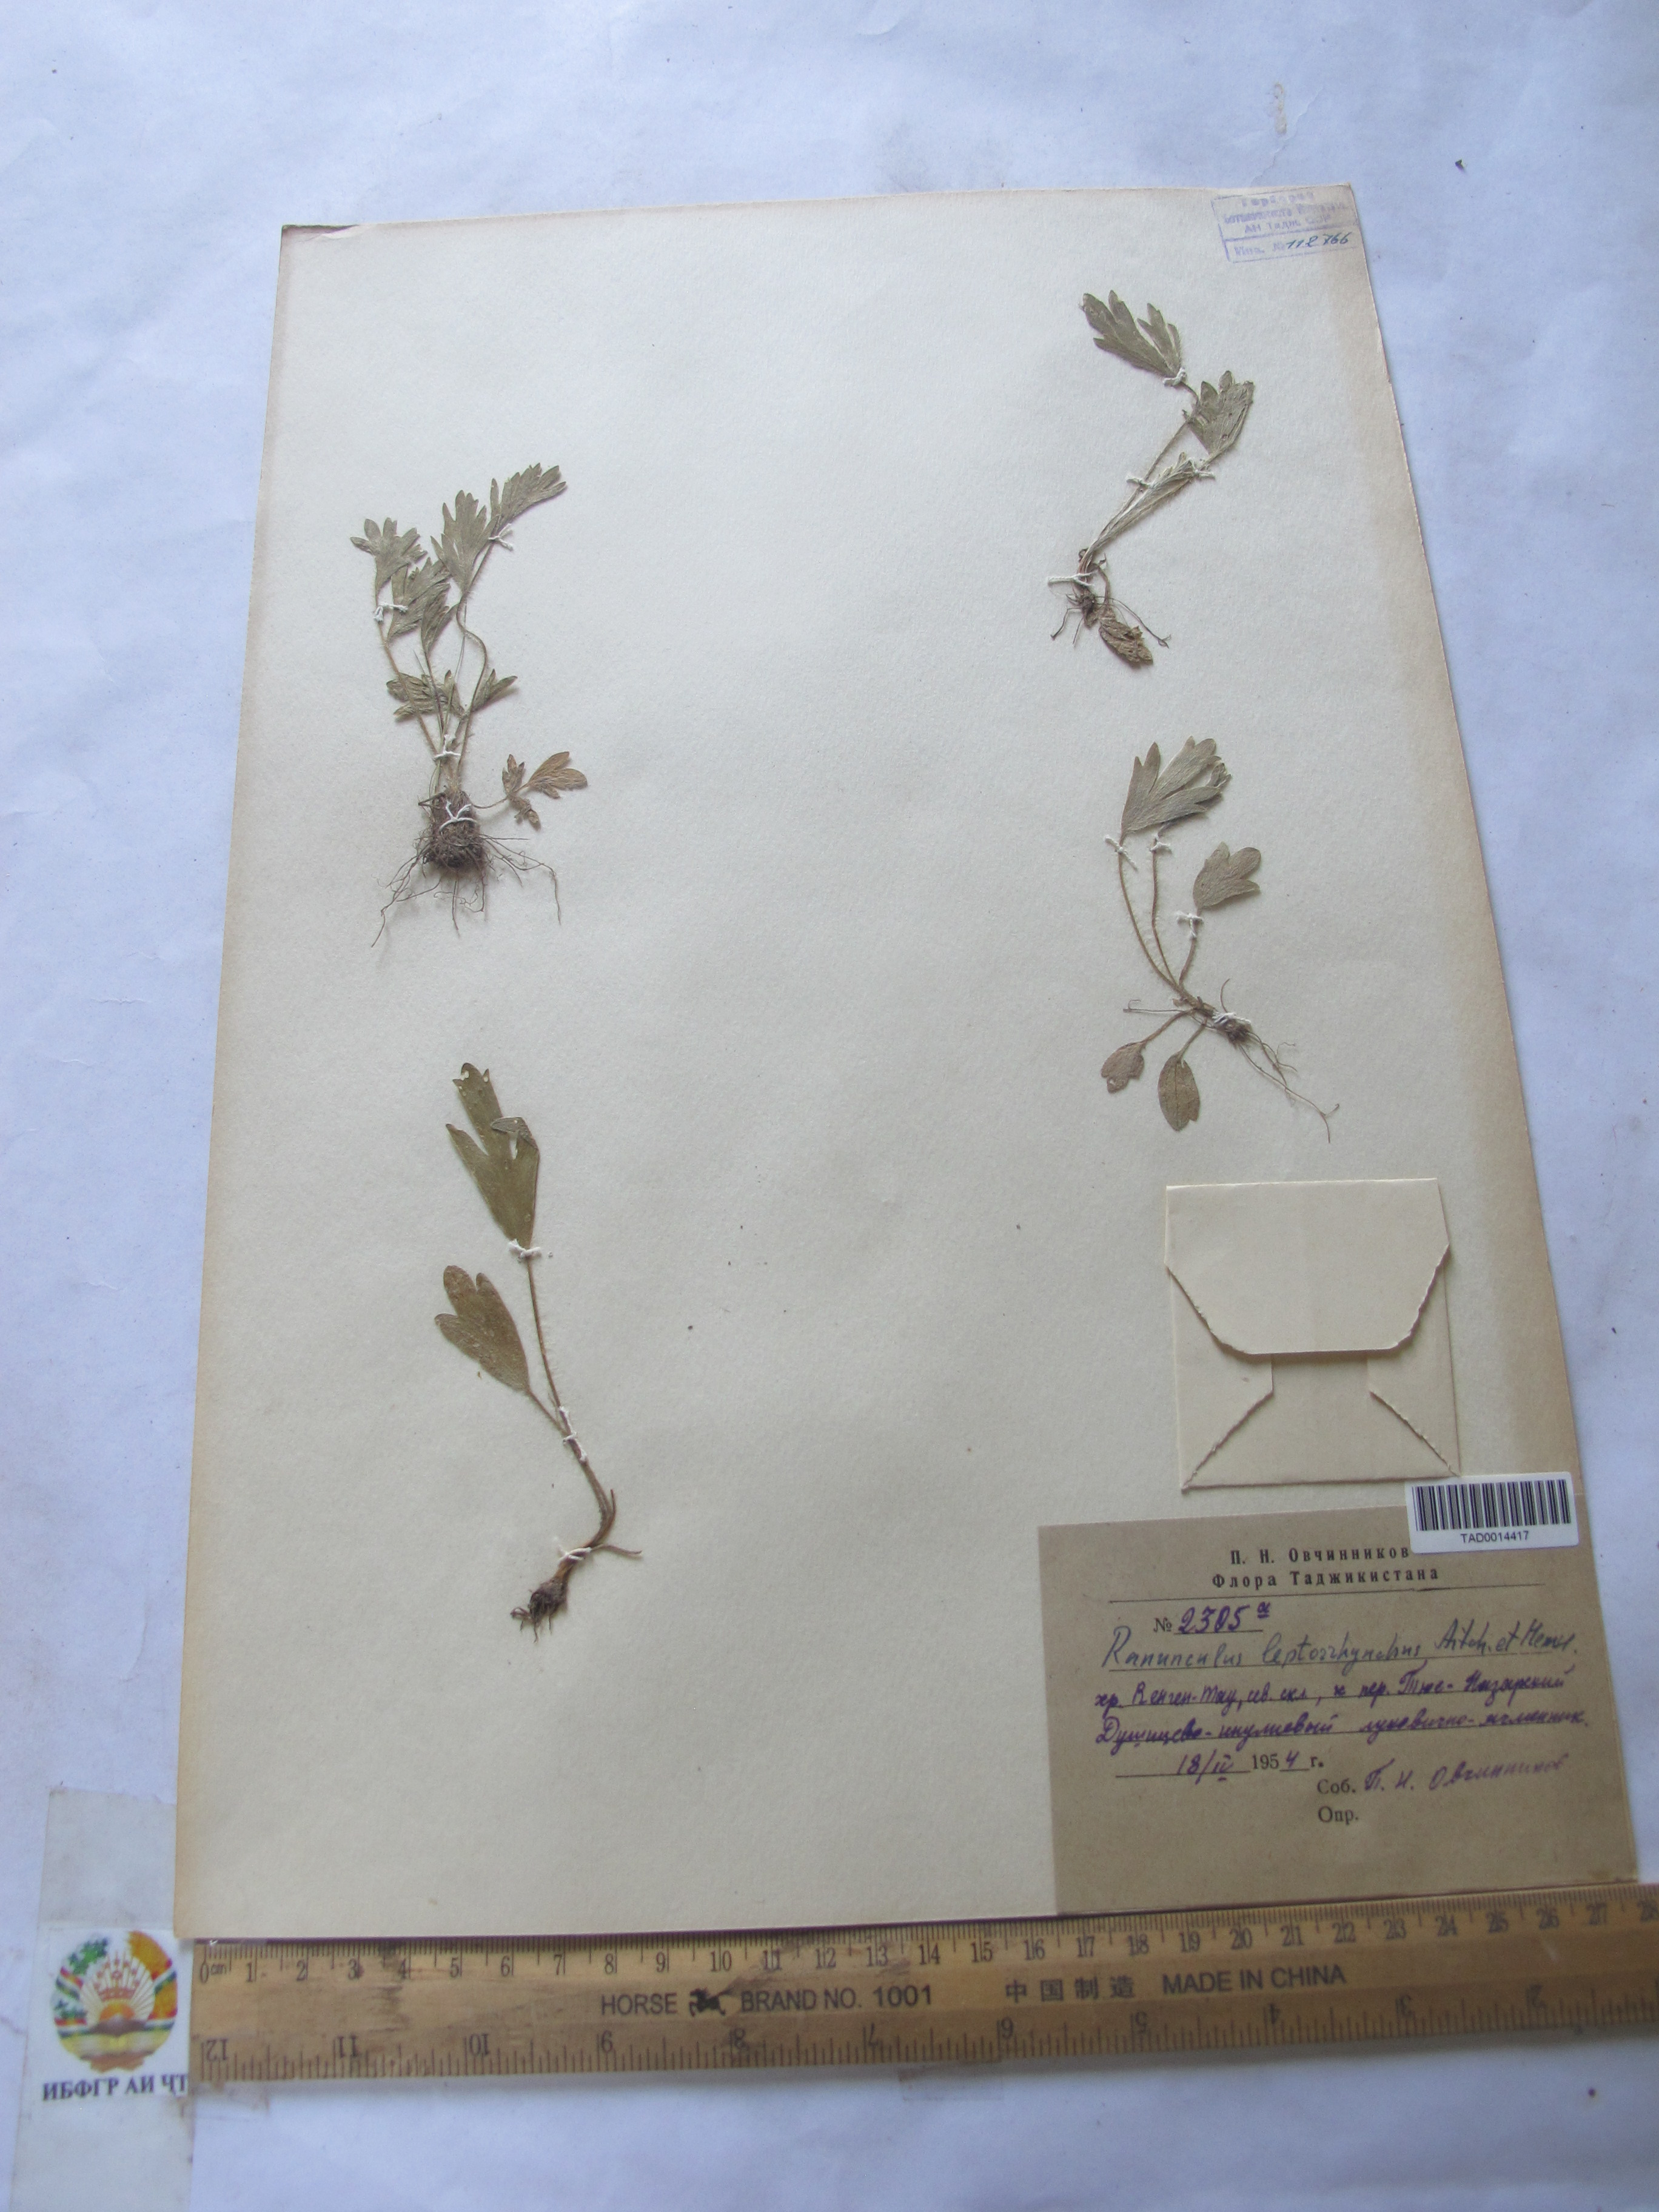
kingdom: Plantae
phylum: Tracheophyta
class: Magnoliopsida
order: Ranunculales
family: Ranunculaceae
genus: Ranunculus
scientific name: Ranunculus leptorrhynchus
